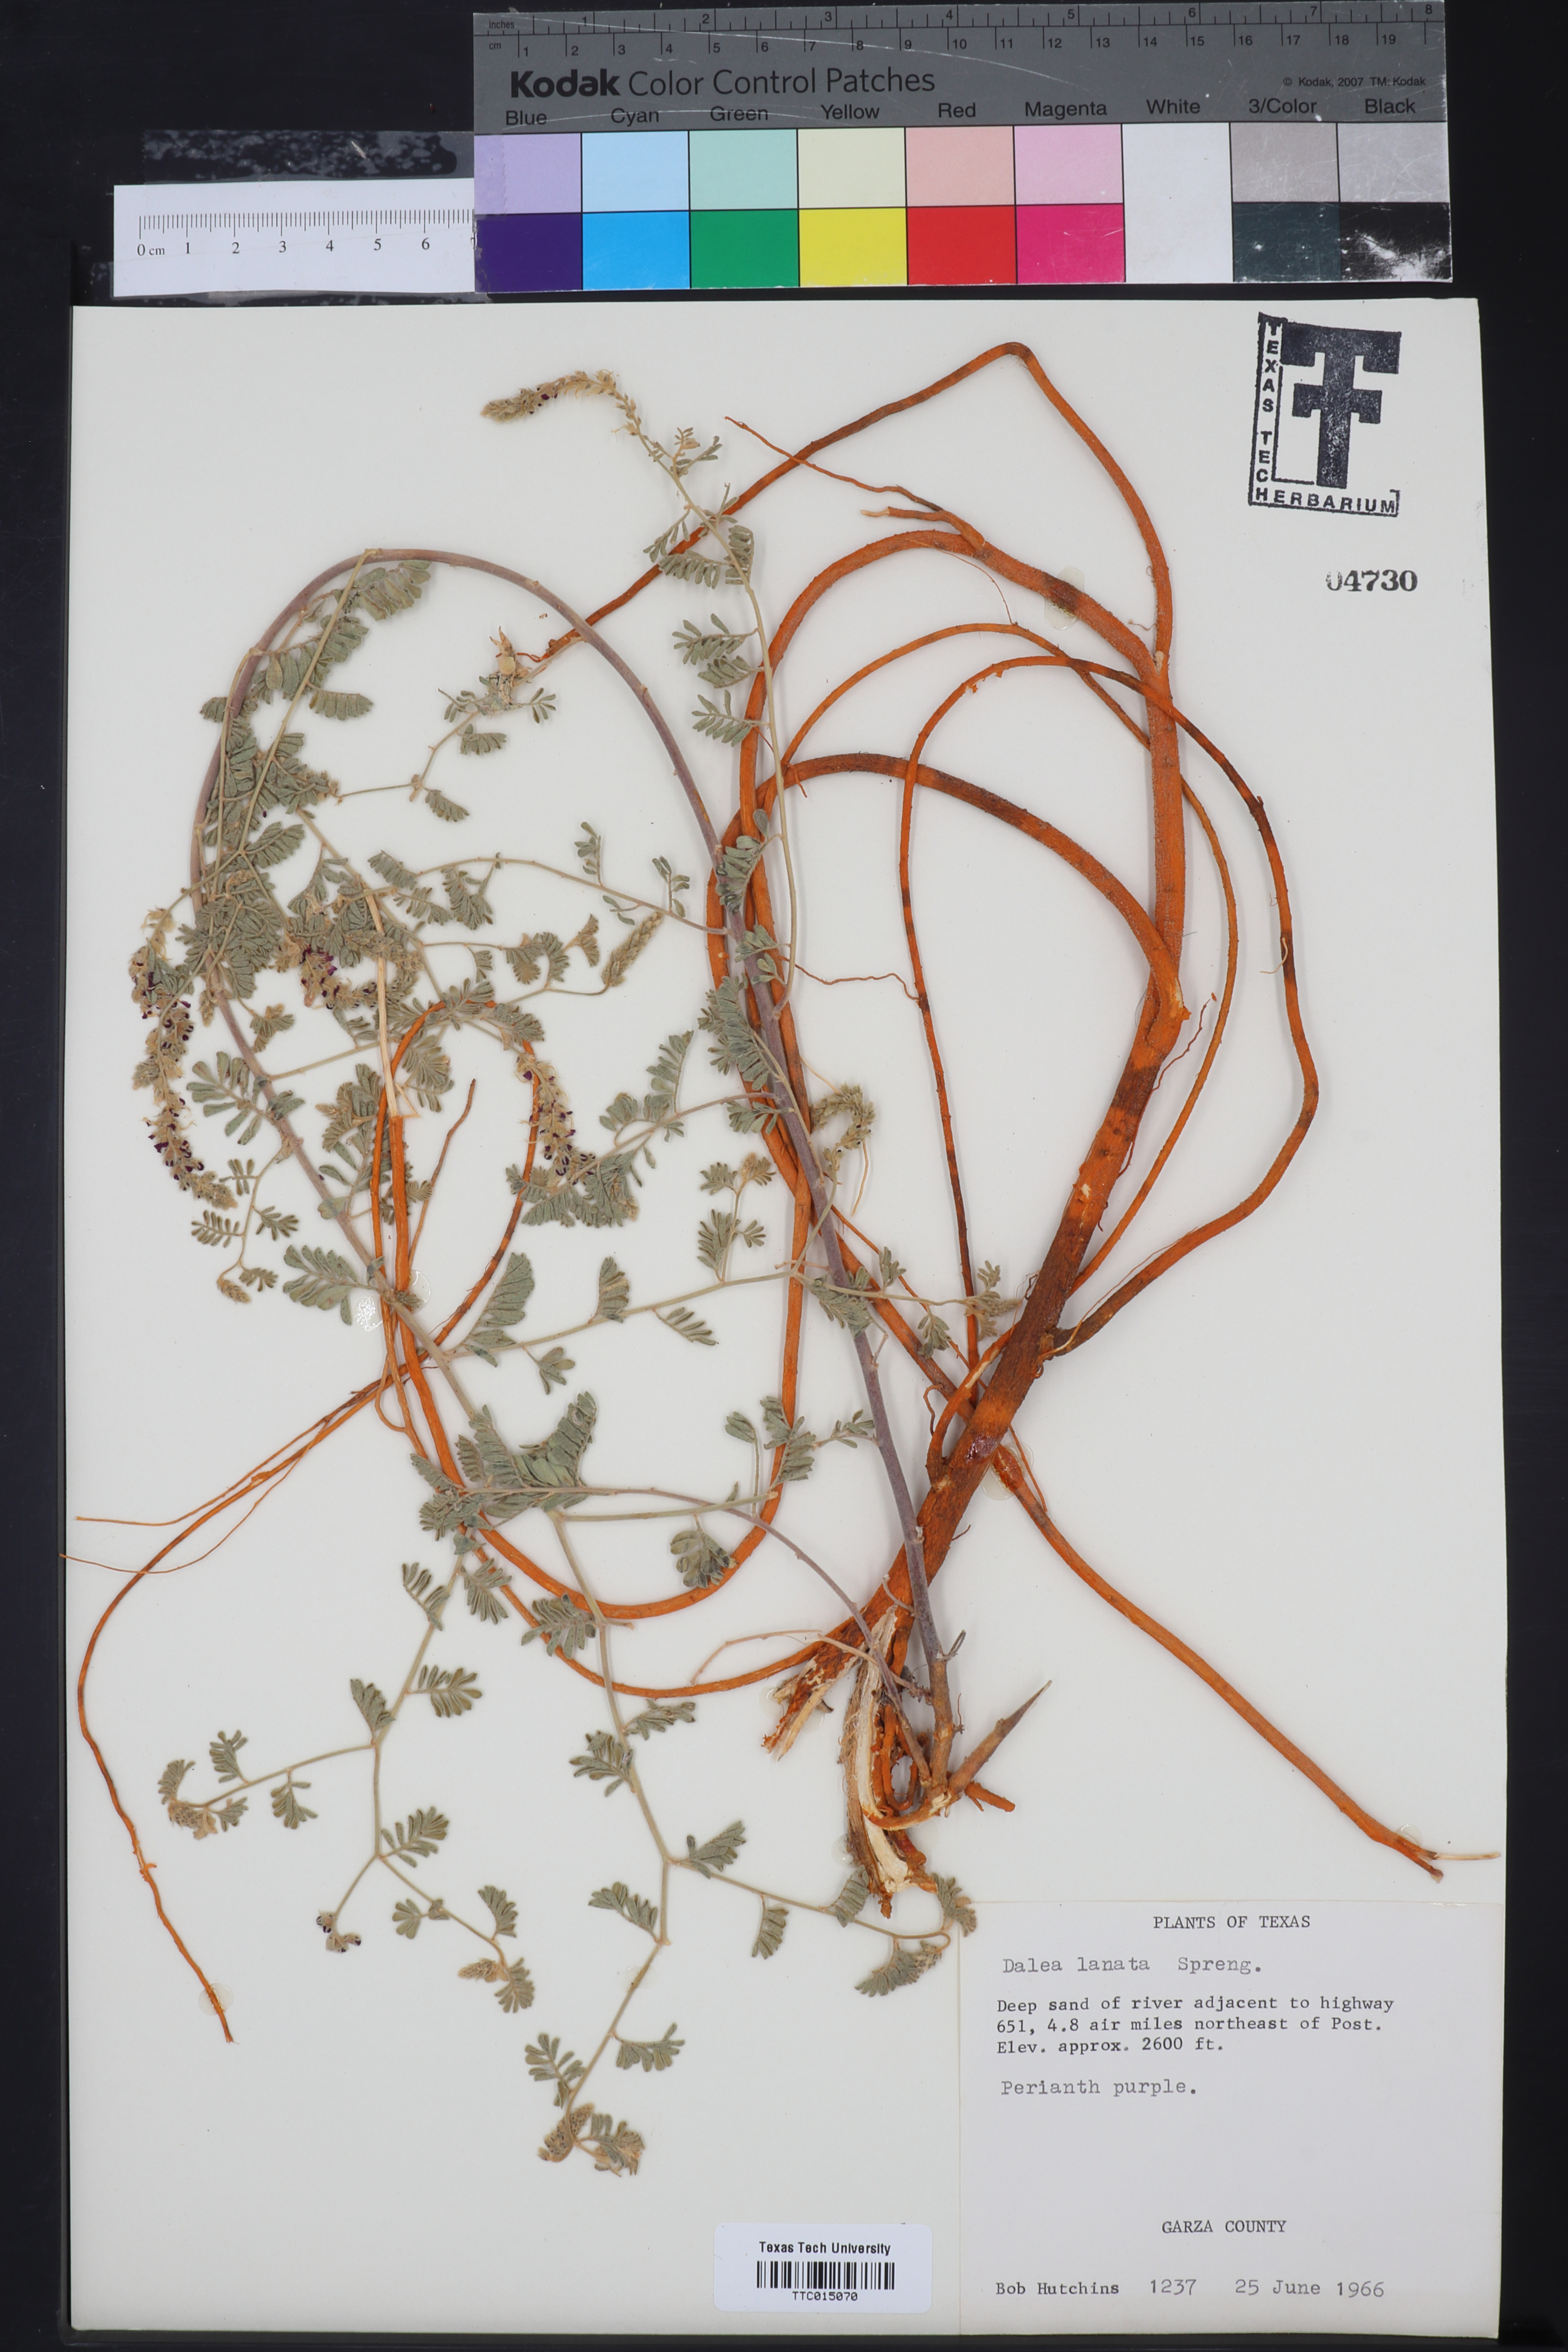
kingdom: Plantae
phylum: Tracheophyta
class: Magnoliopsida
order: Fabales
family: Fabaceae
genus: Dalea
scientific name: Dalea lanata
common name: Woolly dalea
